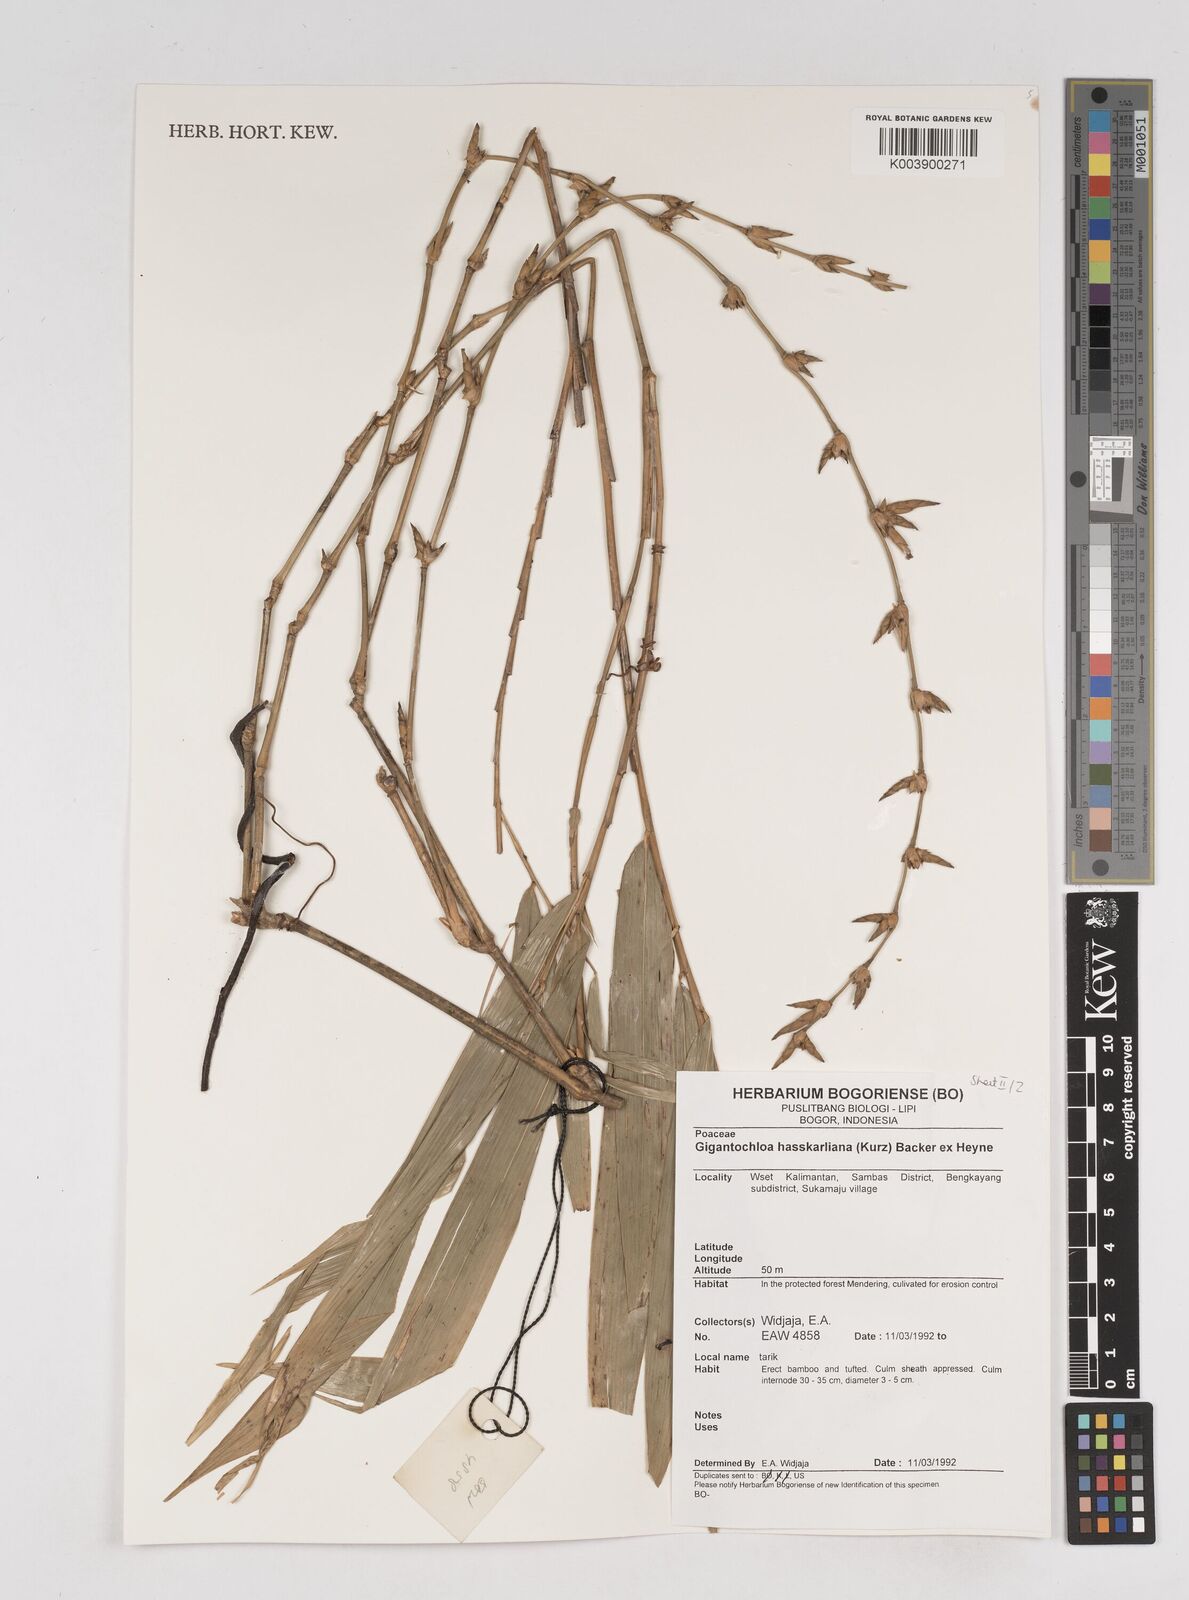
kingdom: Plantae
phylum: Tracheophyta
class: Liliopsida
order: Poales
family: Poaceae
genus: Gigantochloa
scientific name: Gigantochloa hasskarliana
